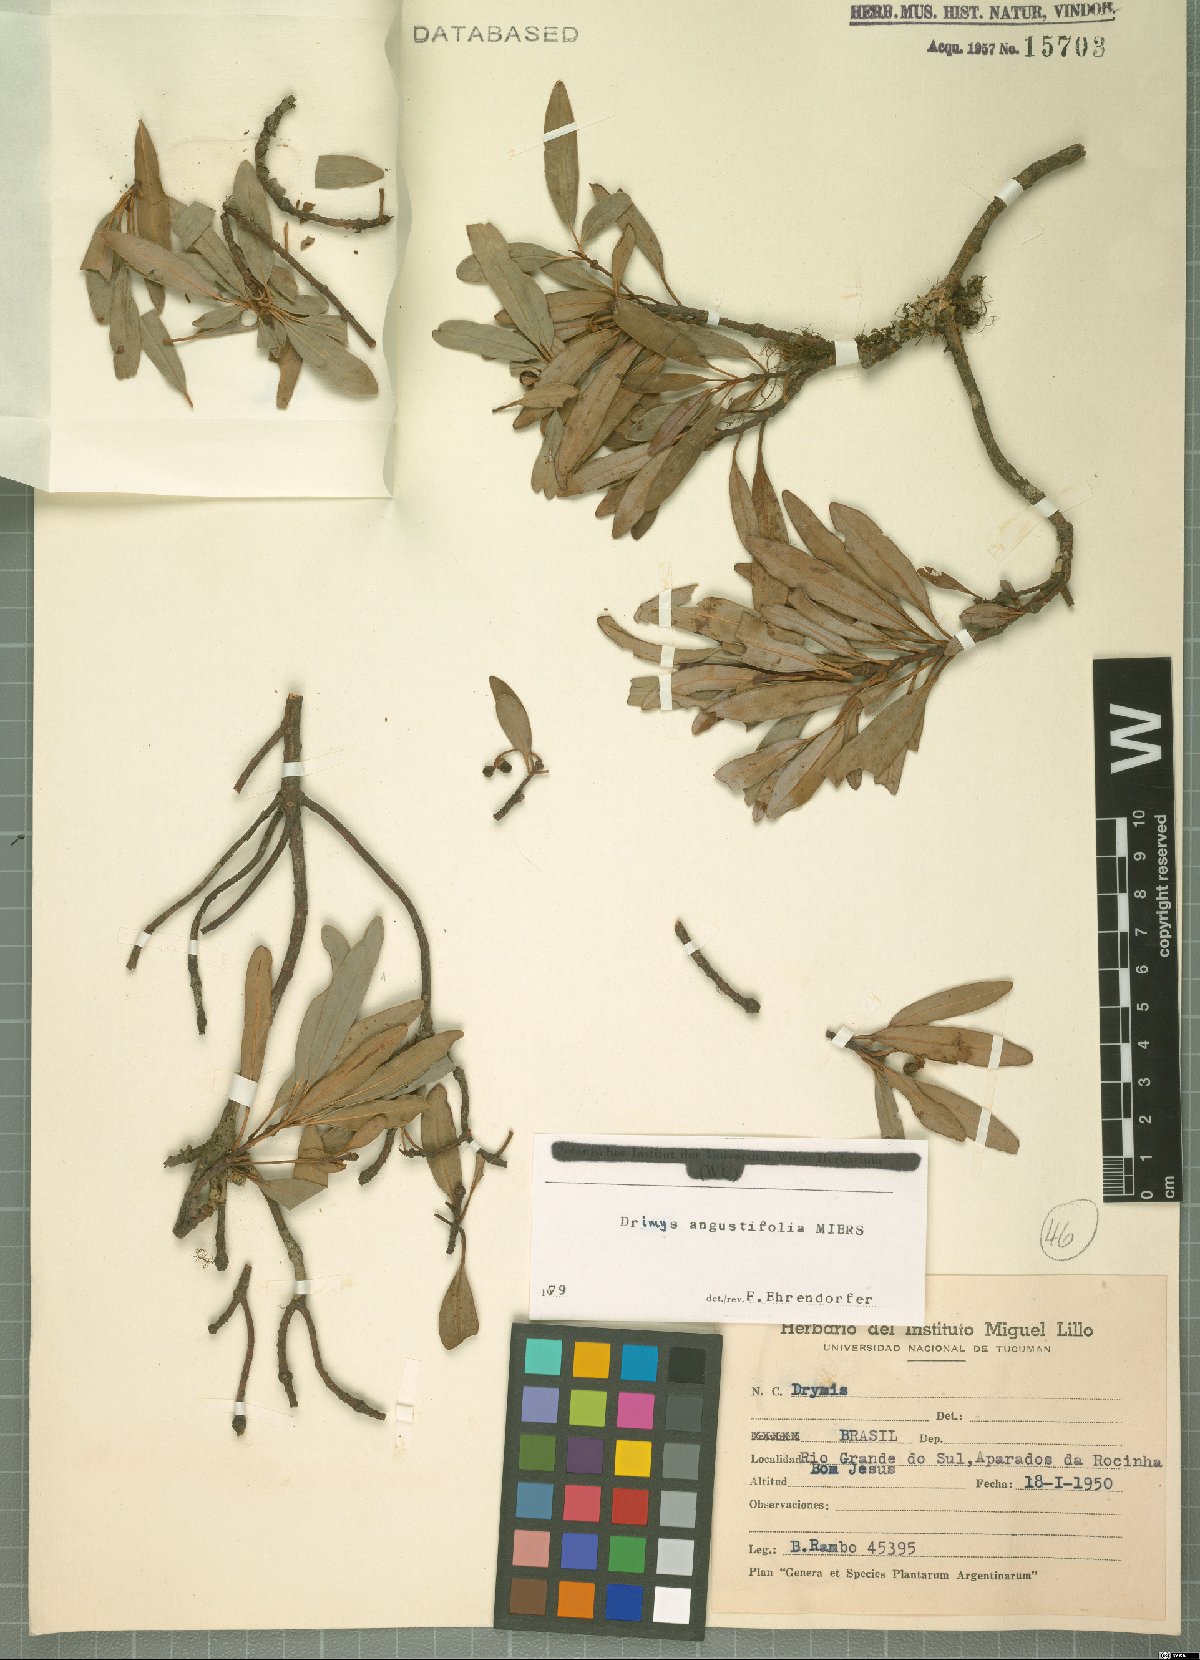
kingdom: Plantae
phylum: Tracheophyta
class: Magnoliopsida
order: Canellales
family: Winteraceae
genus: Drimys
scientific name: Drimys angustifolia
